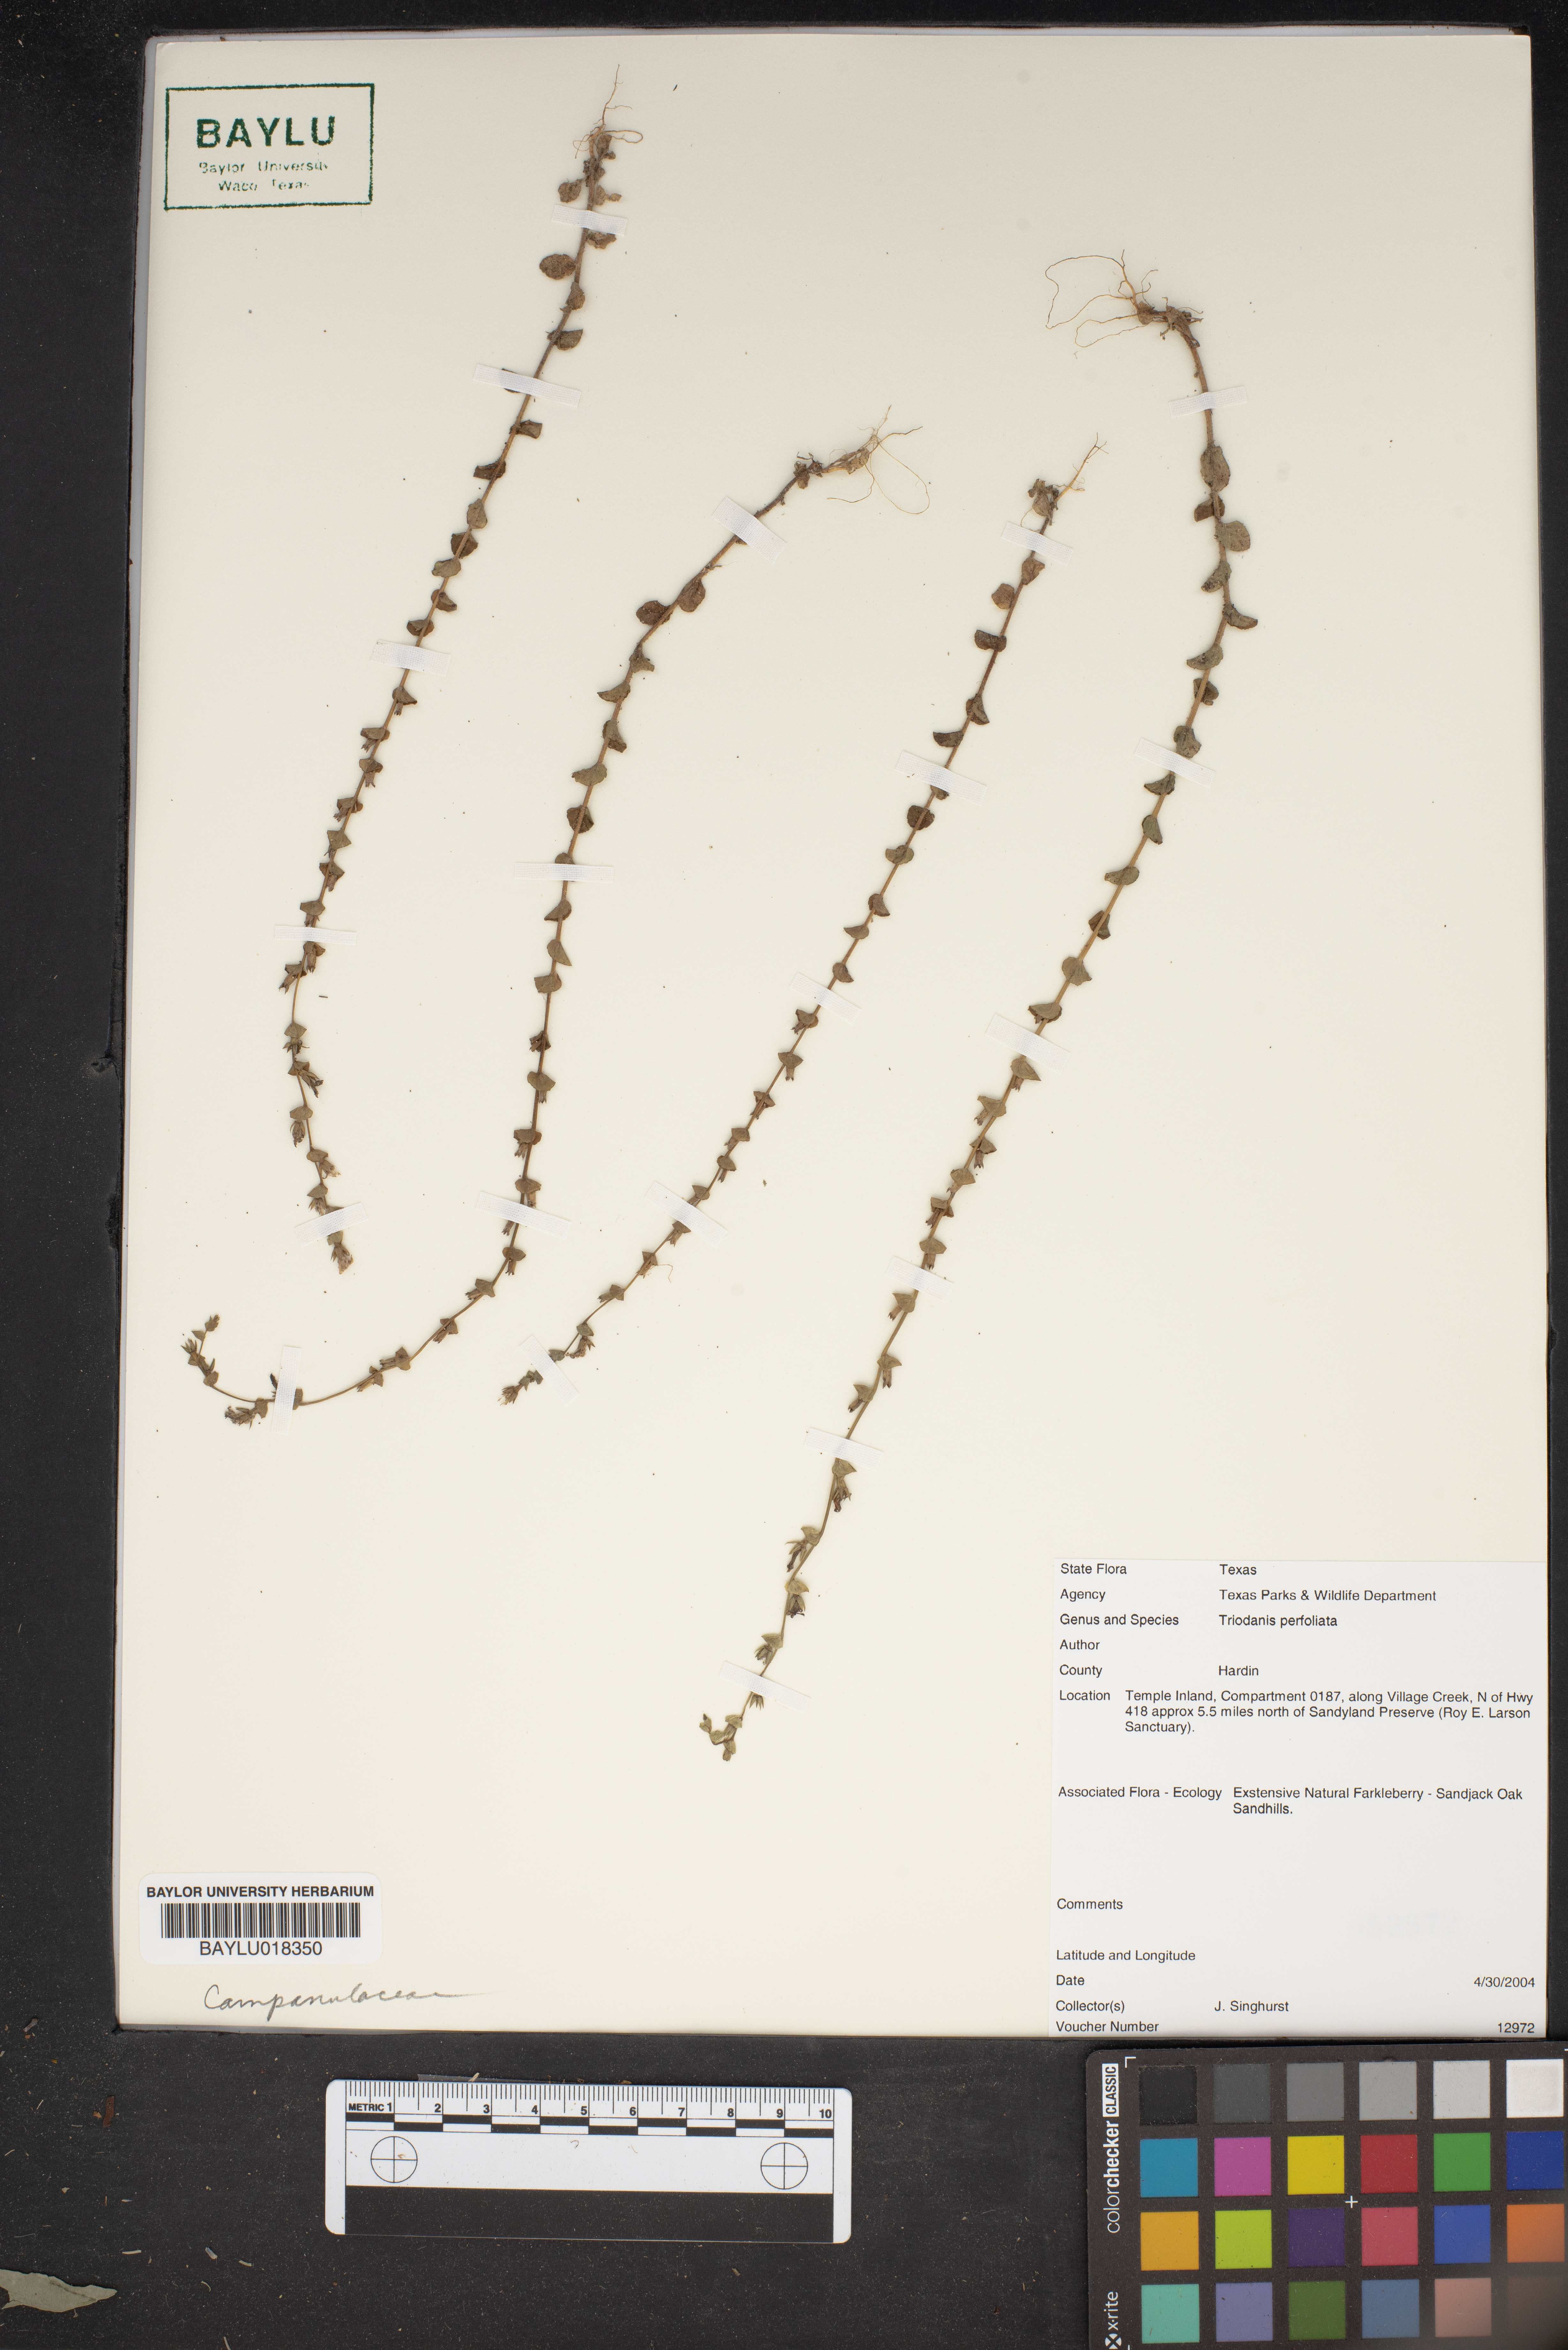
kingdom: Plantae
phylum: Tracheophyta
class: Magnoliopsida
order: Asterales
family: Campanulaceae
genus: Triodanis
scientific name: Triodanis perfoliata
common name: Clasping venus' looking-glass
